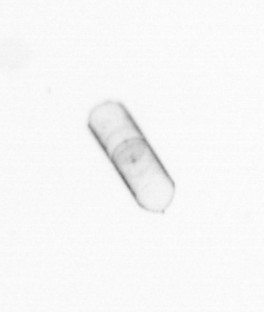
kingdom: Chromista
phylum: Ochrophyta
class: Bacillariophyceae
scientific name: Bacillariophyceae
